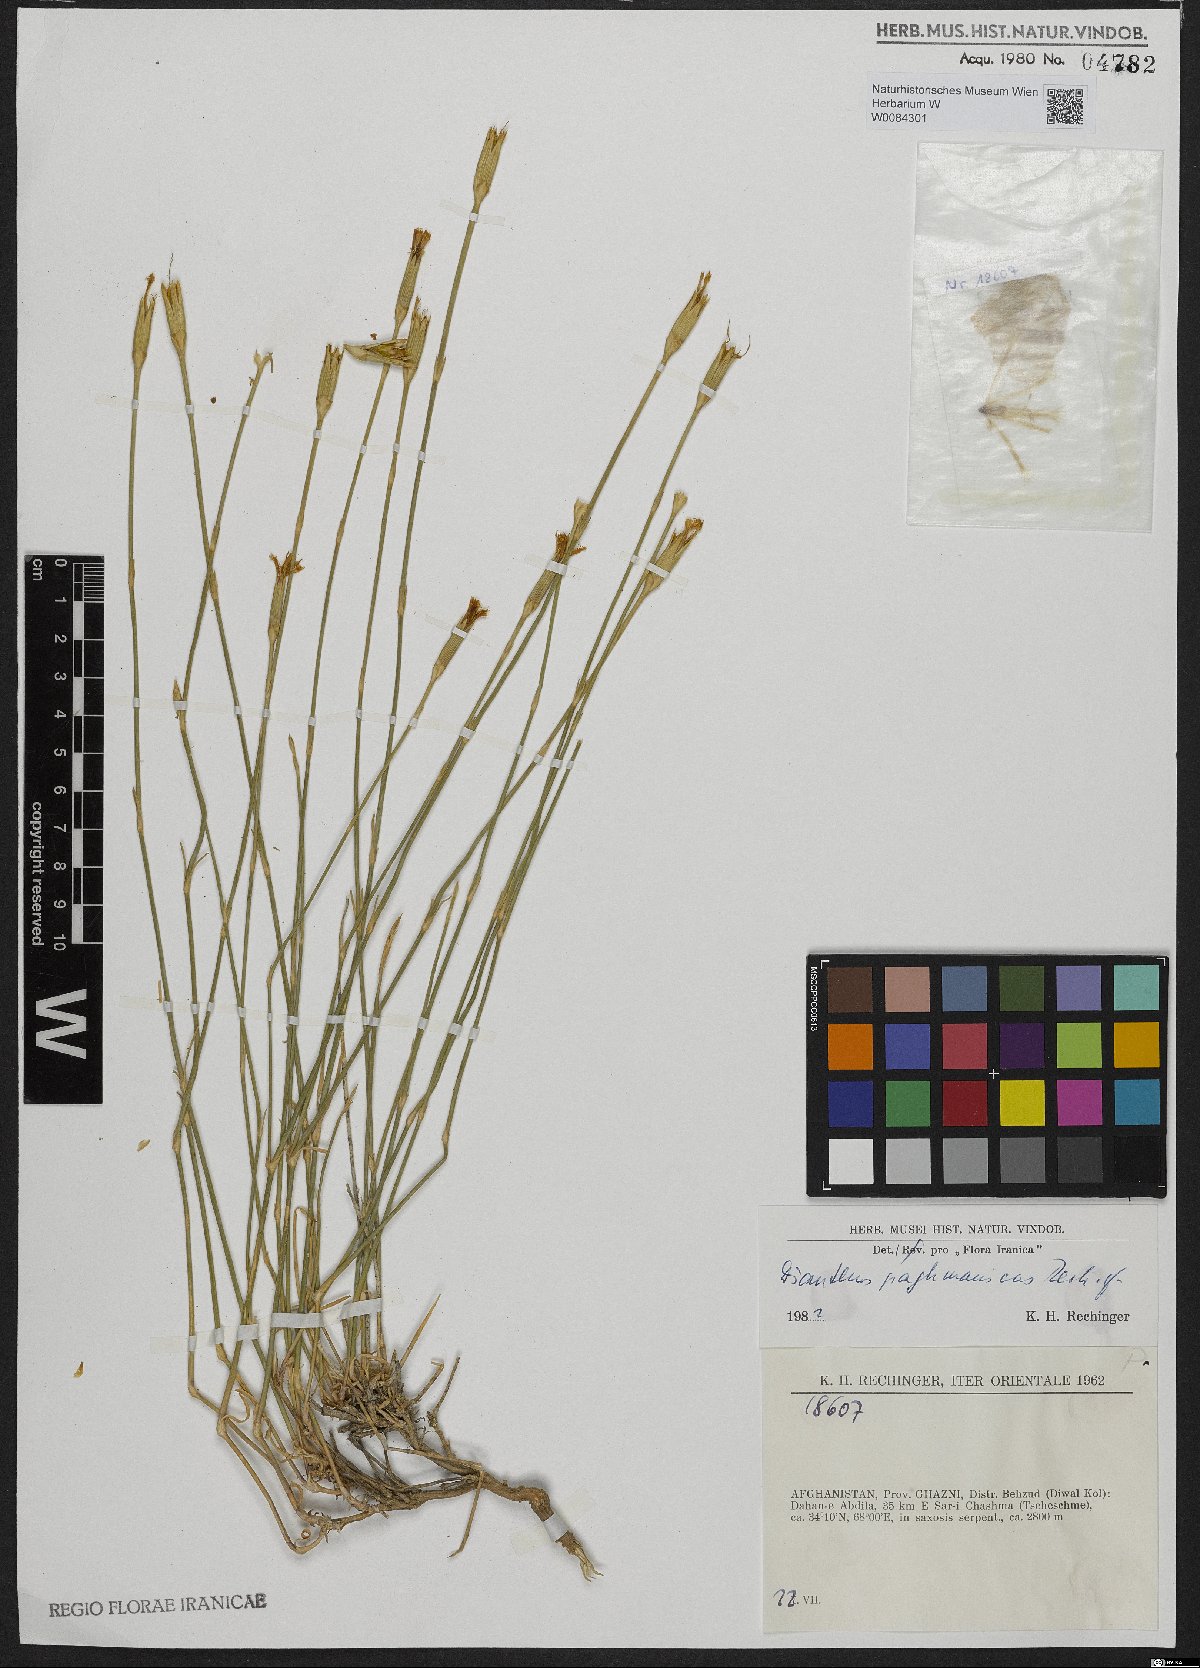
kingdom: Plantae
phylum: Tracheophyta
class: Magnoliopsida
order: Caryophyllales
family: Caryophyllaceae
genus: Dianthus
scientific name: Dianthus paghmanicus
